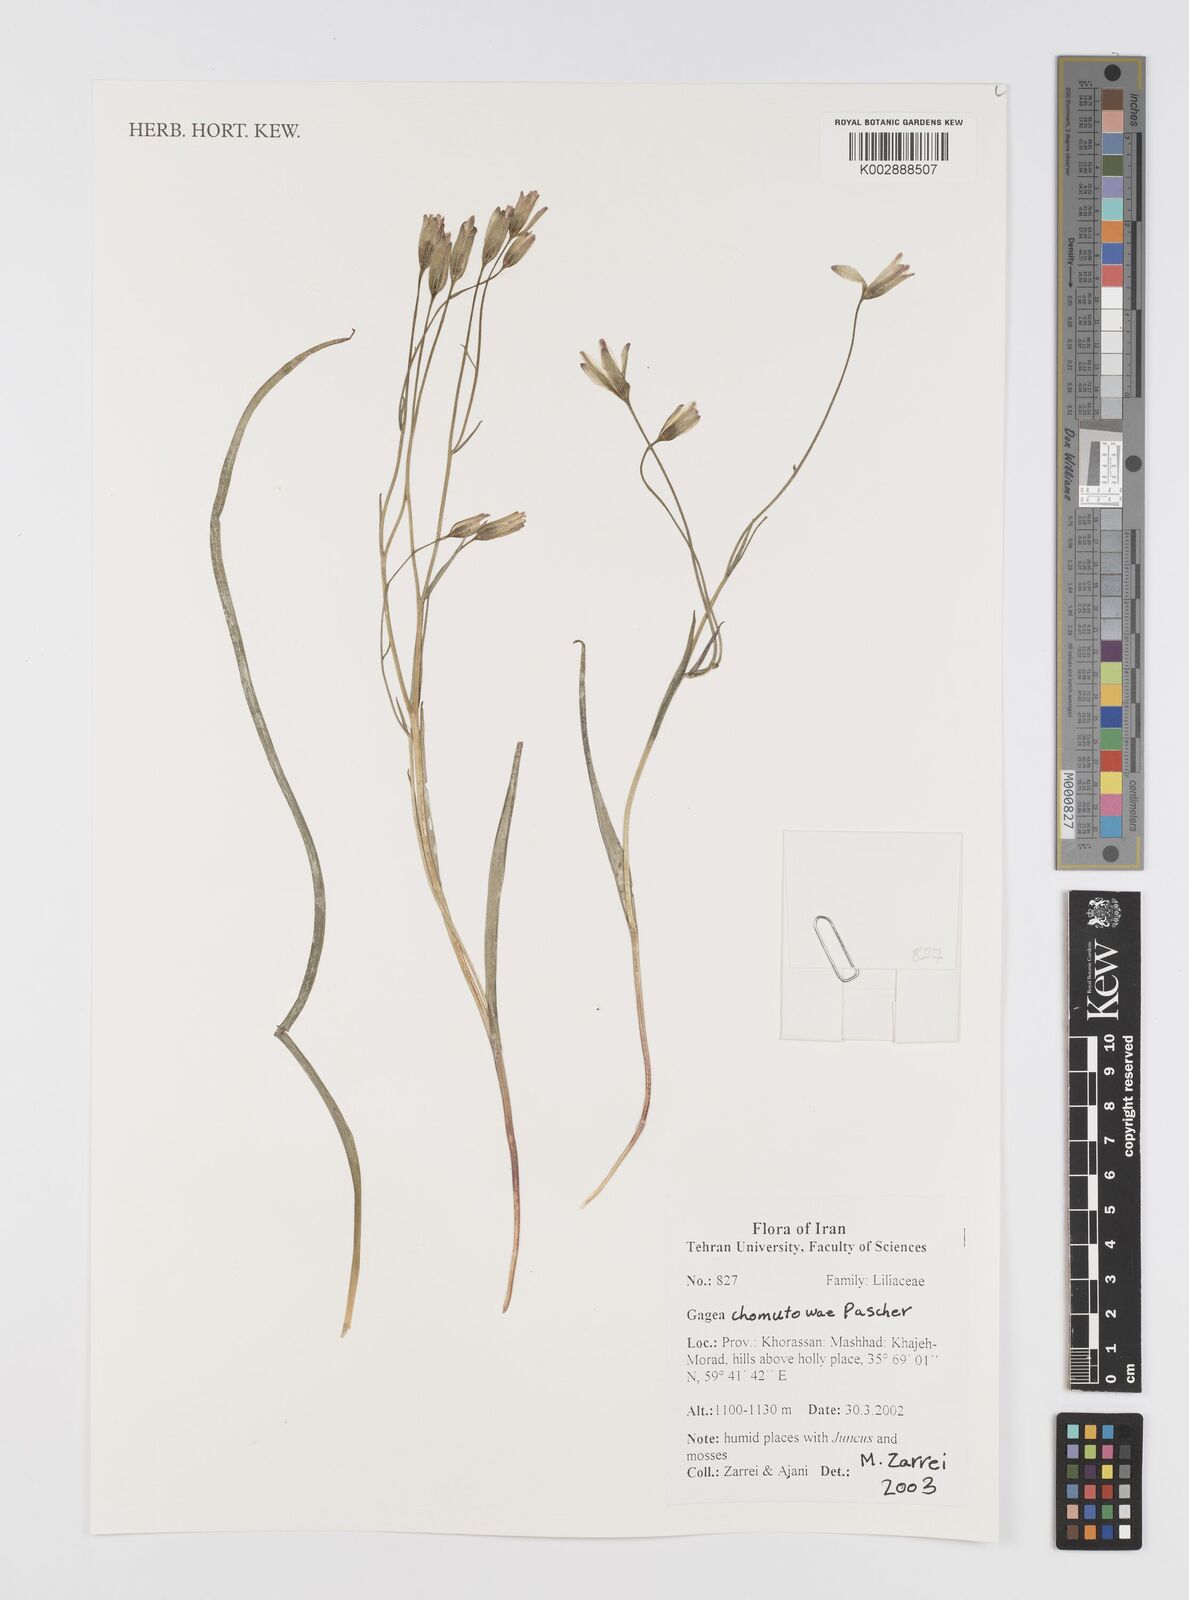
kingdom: Plantae
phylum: Tracheophyta
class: Liliopsida
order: Liliales
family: Liliaceae
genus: Gagea
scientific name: Gagea chomutovae
